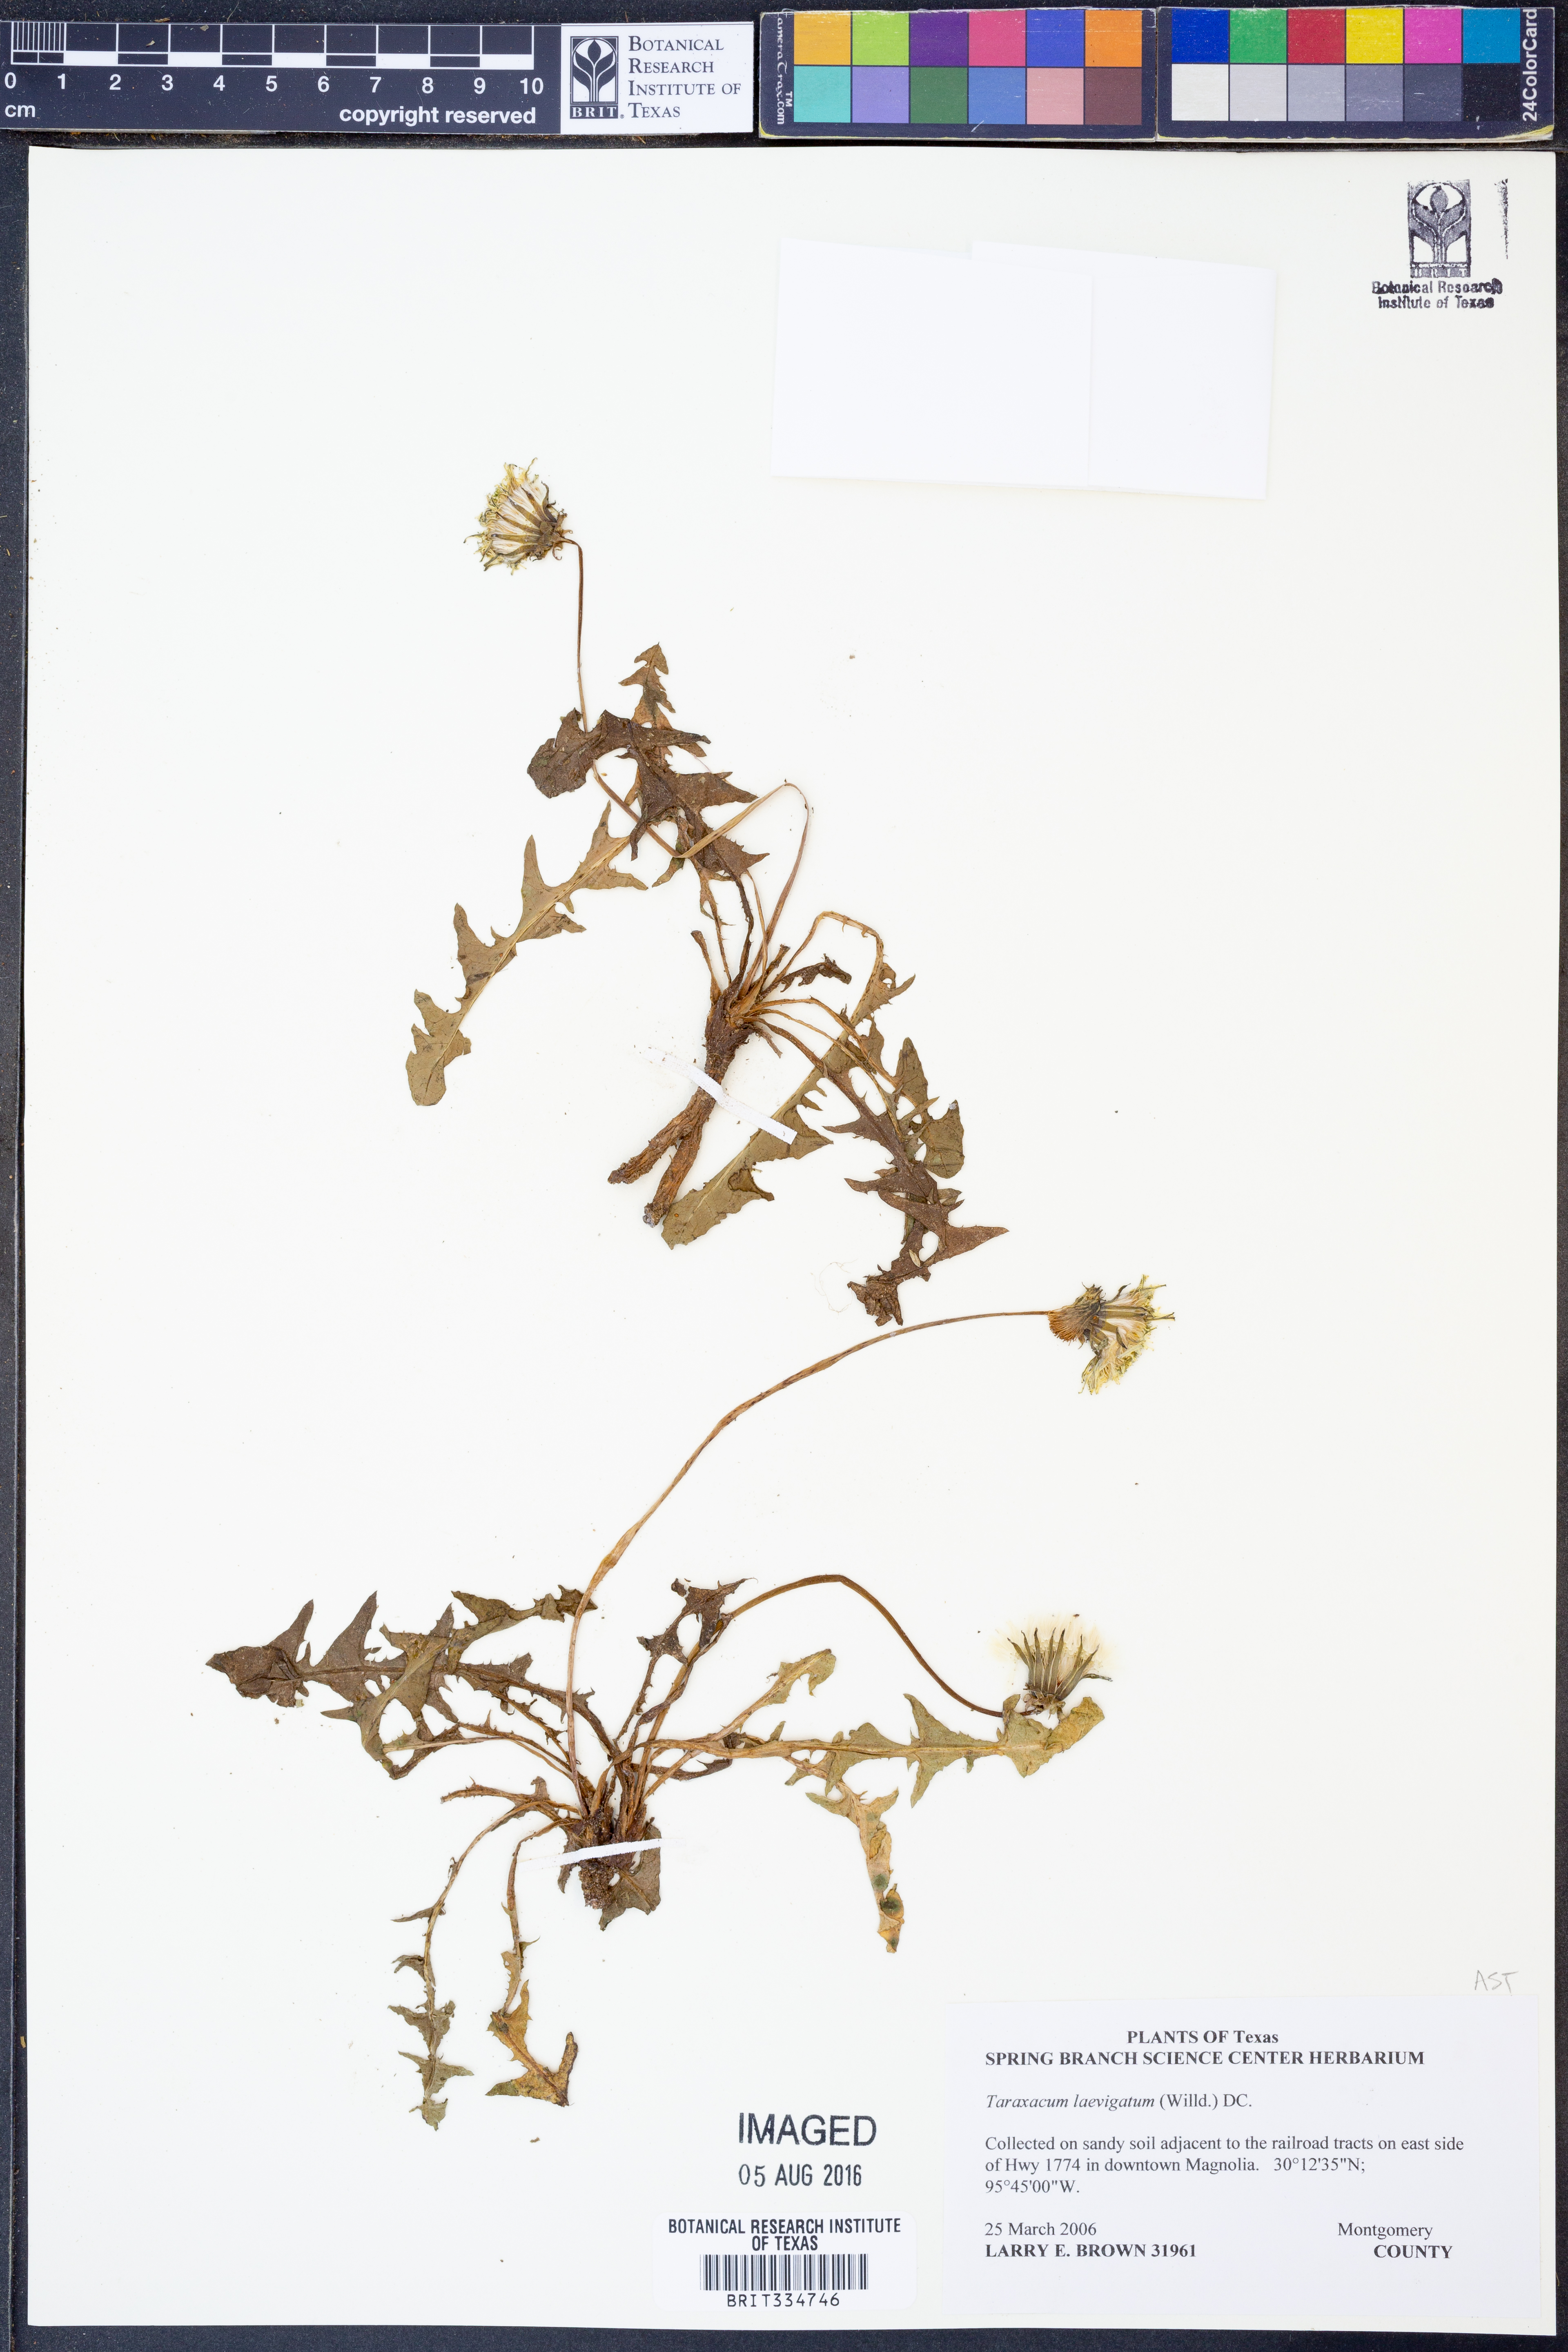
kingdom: Plantae
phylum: Tracheophyta
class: Magnoliopsida
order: Asterales
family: Asteraceae
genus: Taraxacum
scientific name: Taraxacum erythrospermum
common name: Rock dandelion
